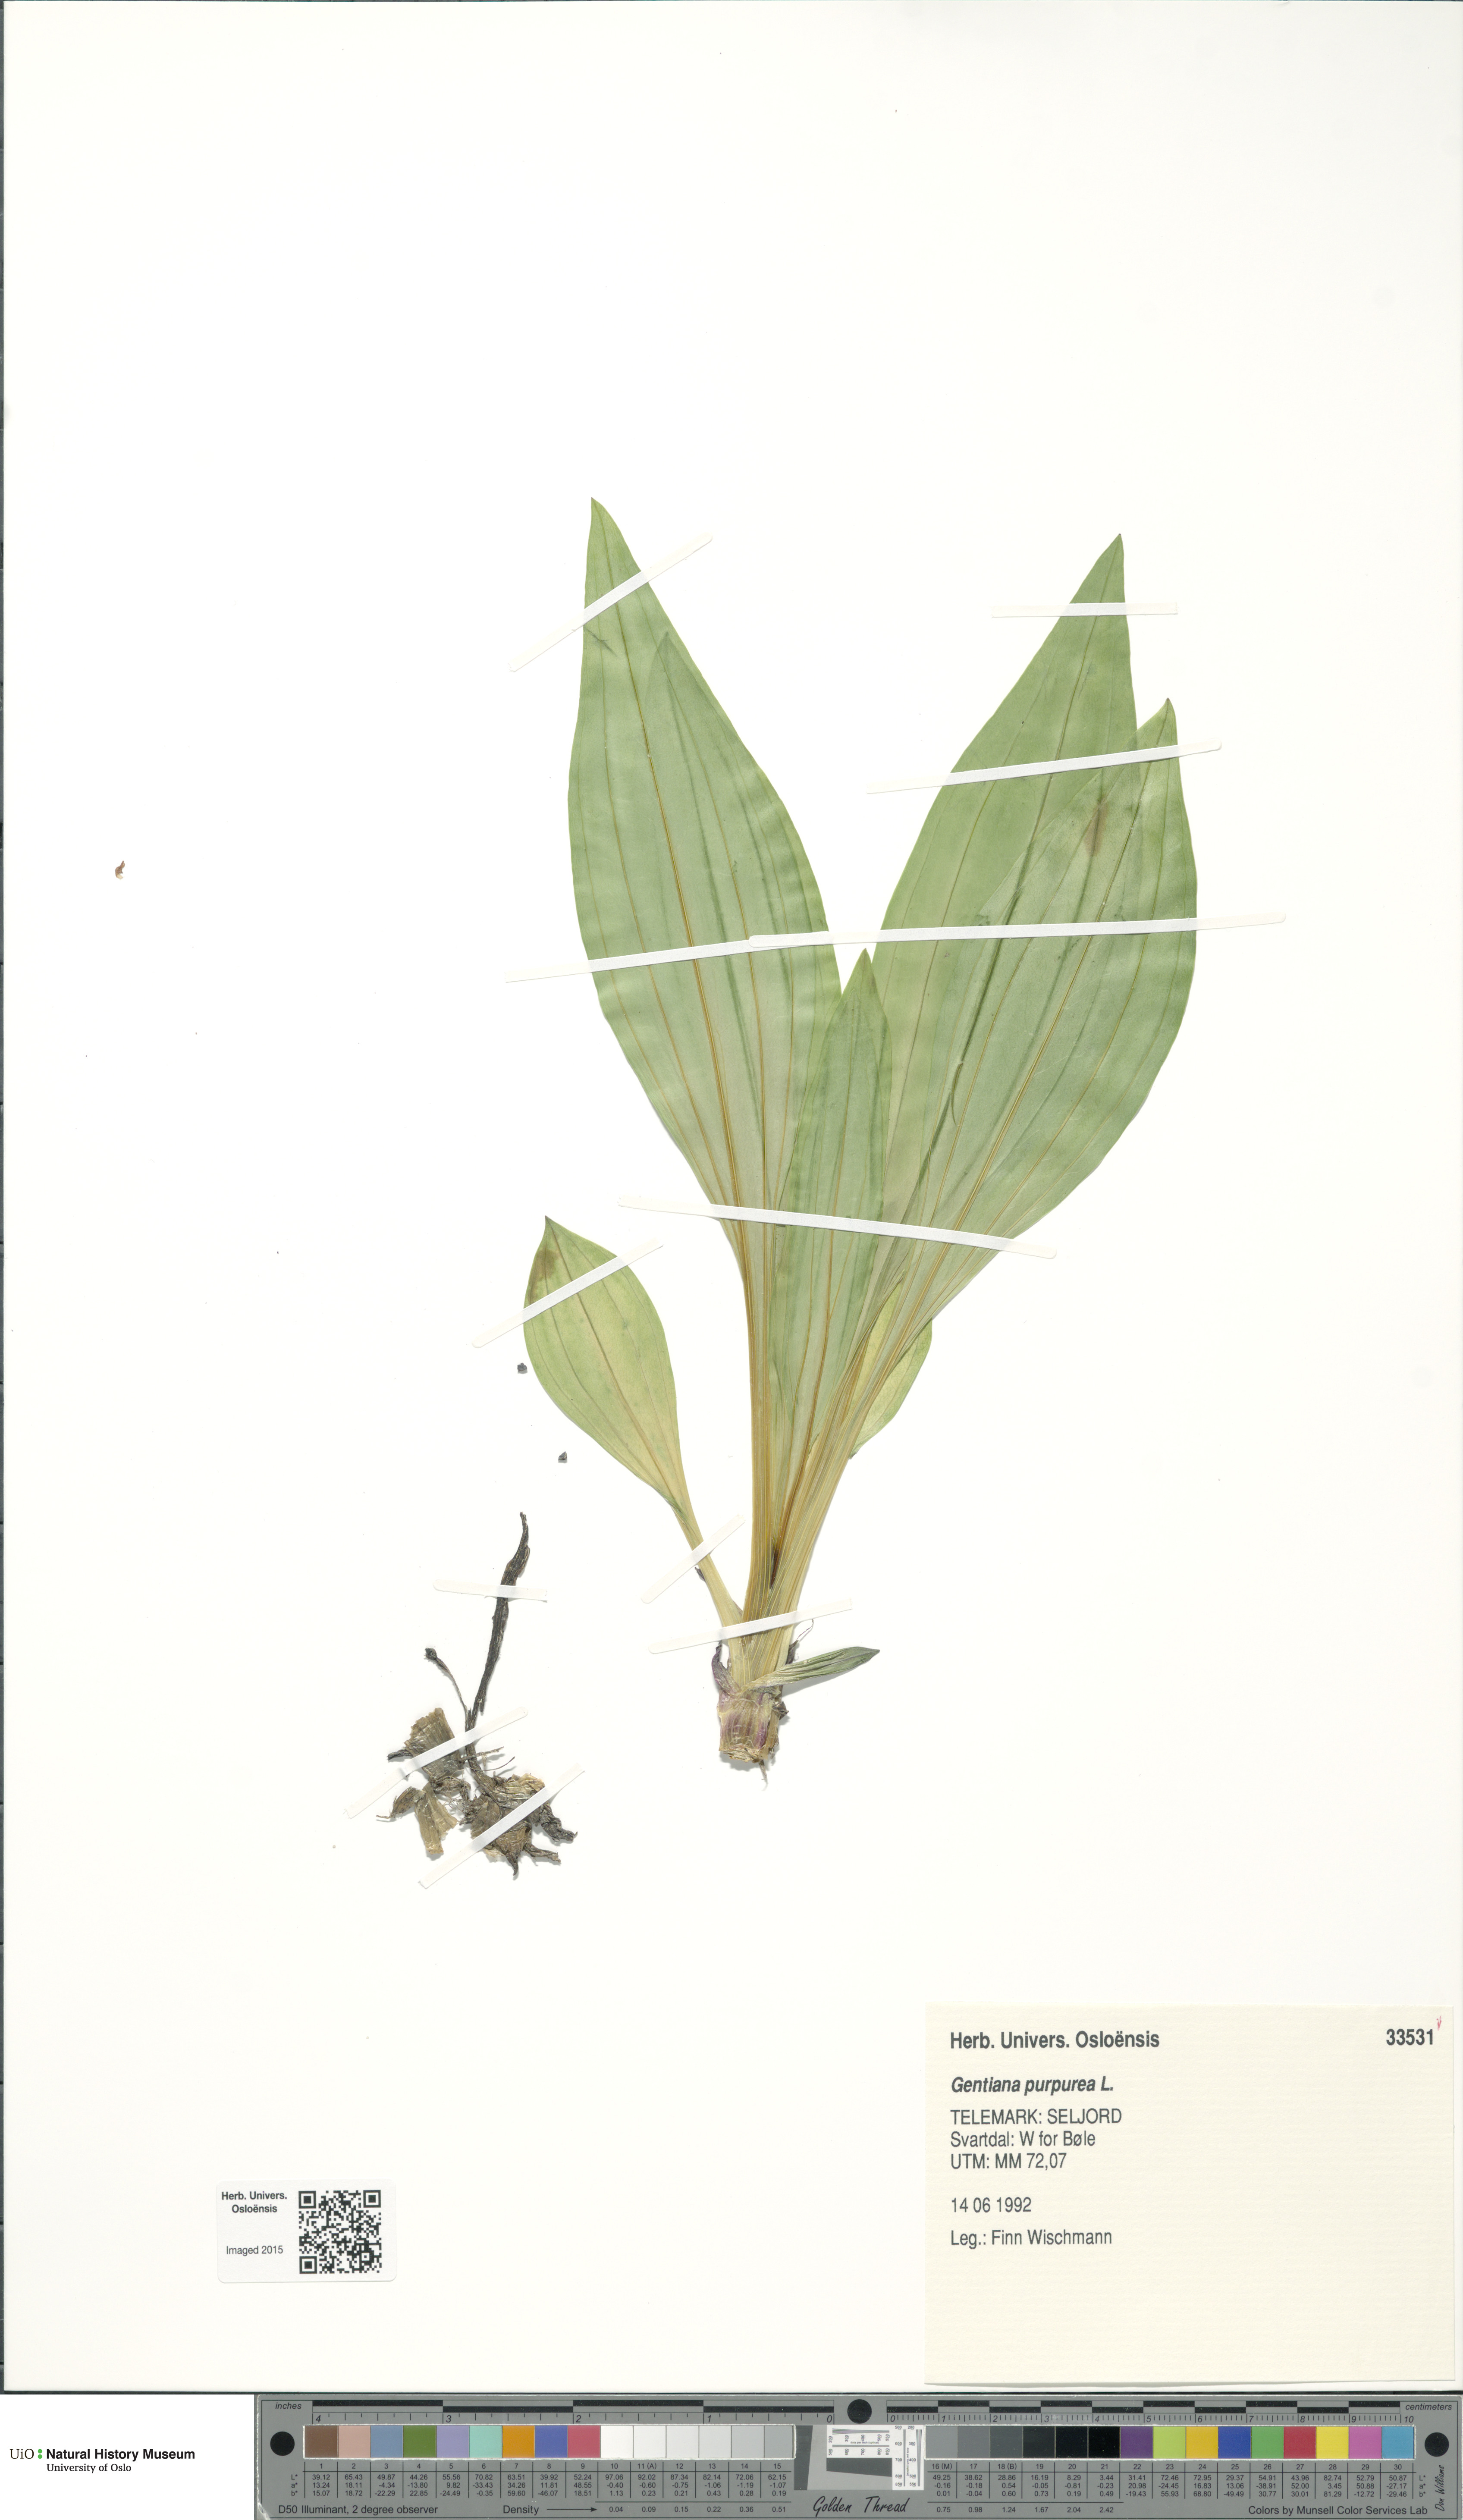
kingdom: Plantae
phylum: Tracheophyta
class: Magnoliopsida
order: Gentianales
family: Gentianaceae
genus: Gentiana
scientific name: Gentiana purpurea
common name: Purple gentian
